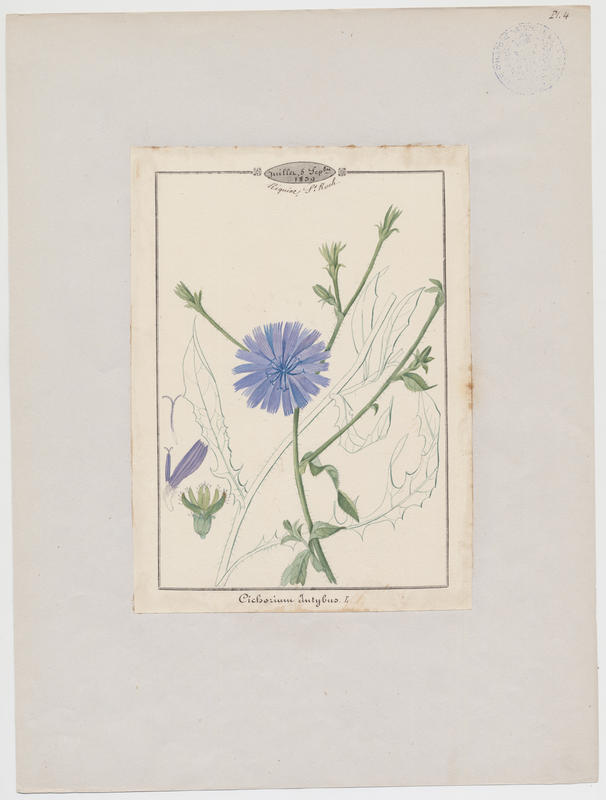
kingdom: Plantae
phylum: Tracheophyta
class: Magnoliopsida
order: Asterales
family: Asteraceae
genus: Cichorium
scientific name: Cichorium intybus
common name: Chicory
